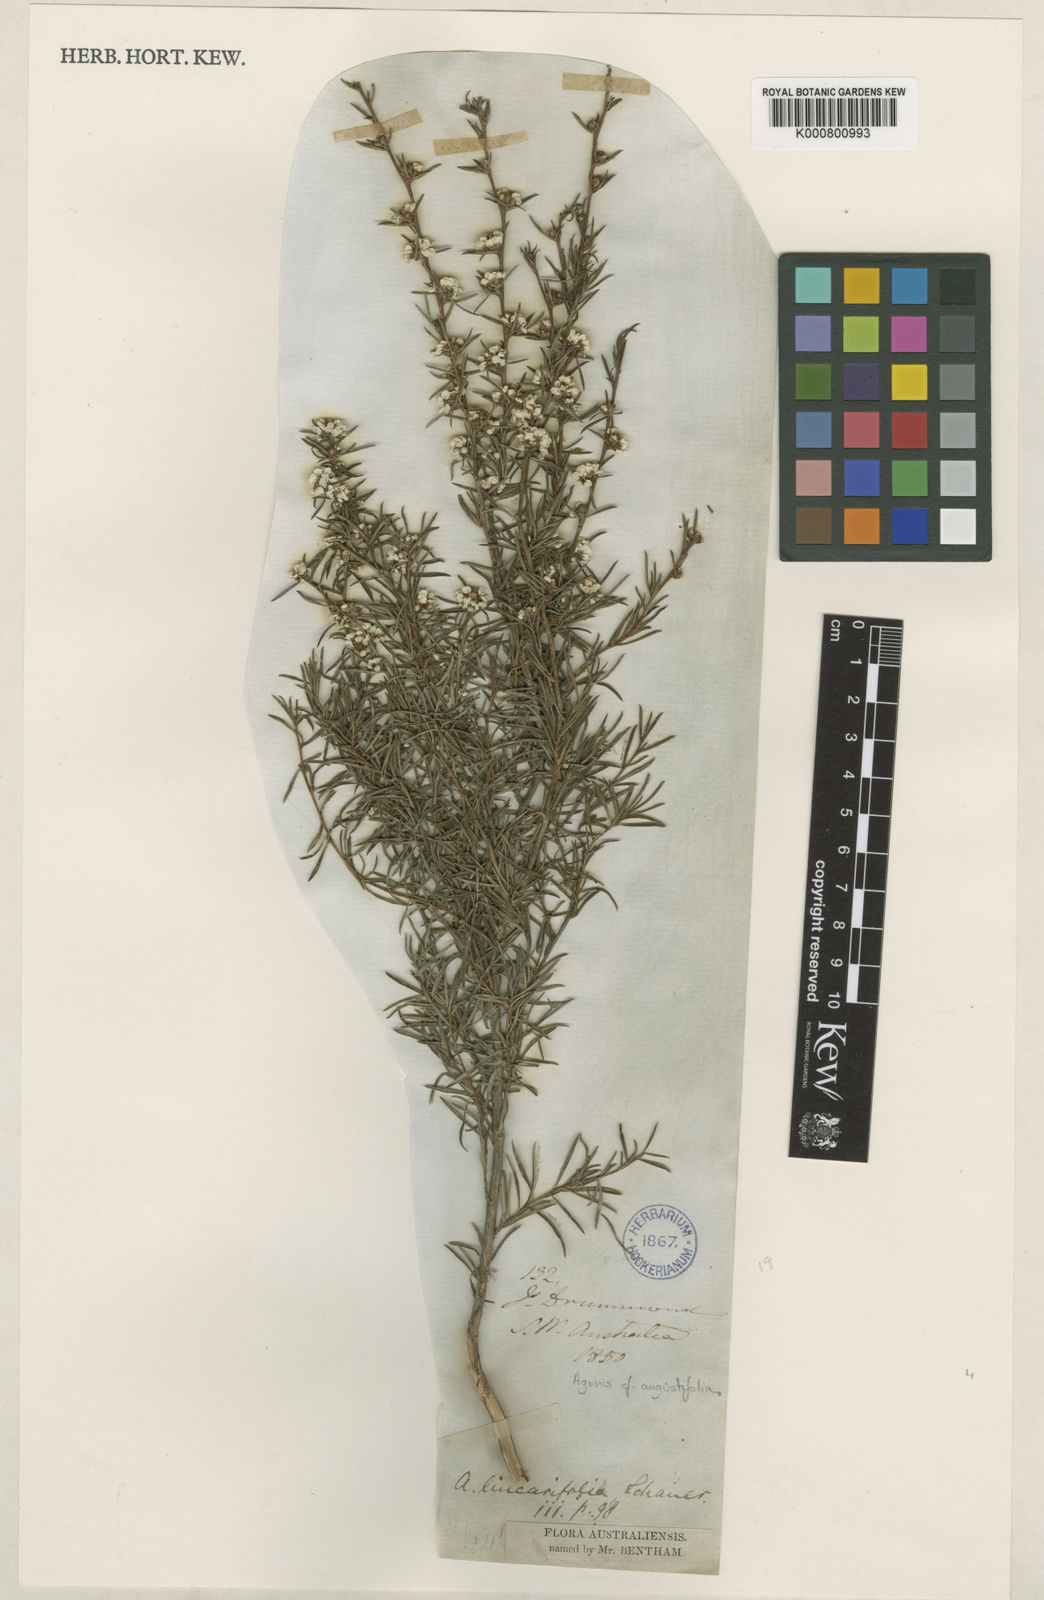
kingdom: Plantae
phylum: Tracheophyta
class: Magnoliopsida
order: Myrtales
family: Myrtaceae
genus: Agonis
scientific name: Agonis
